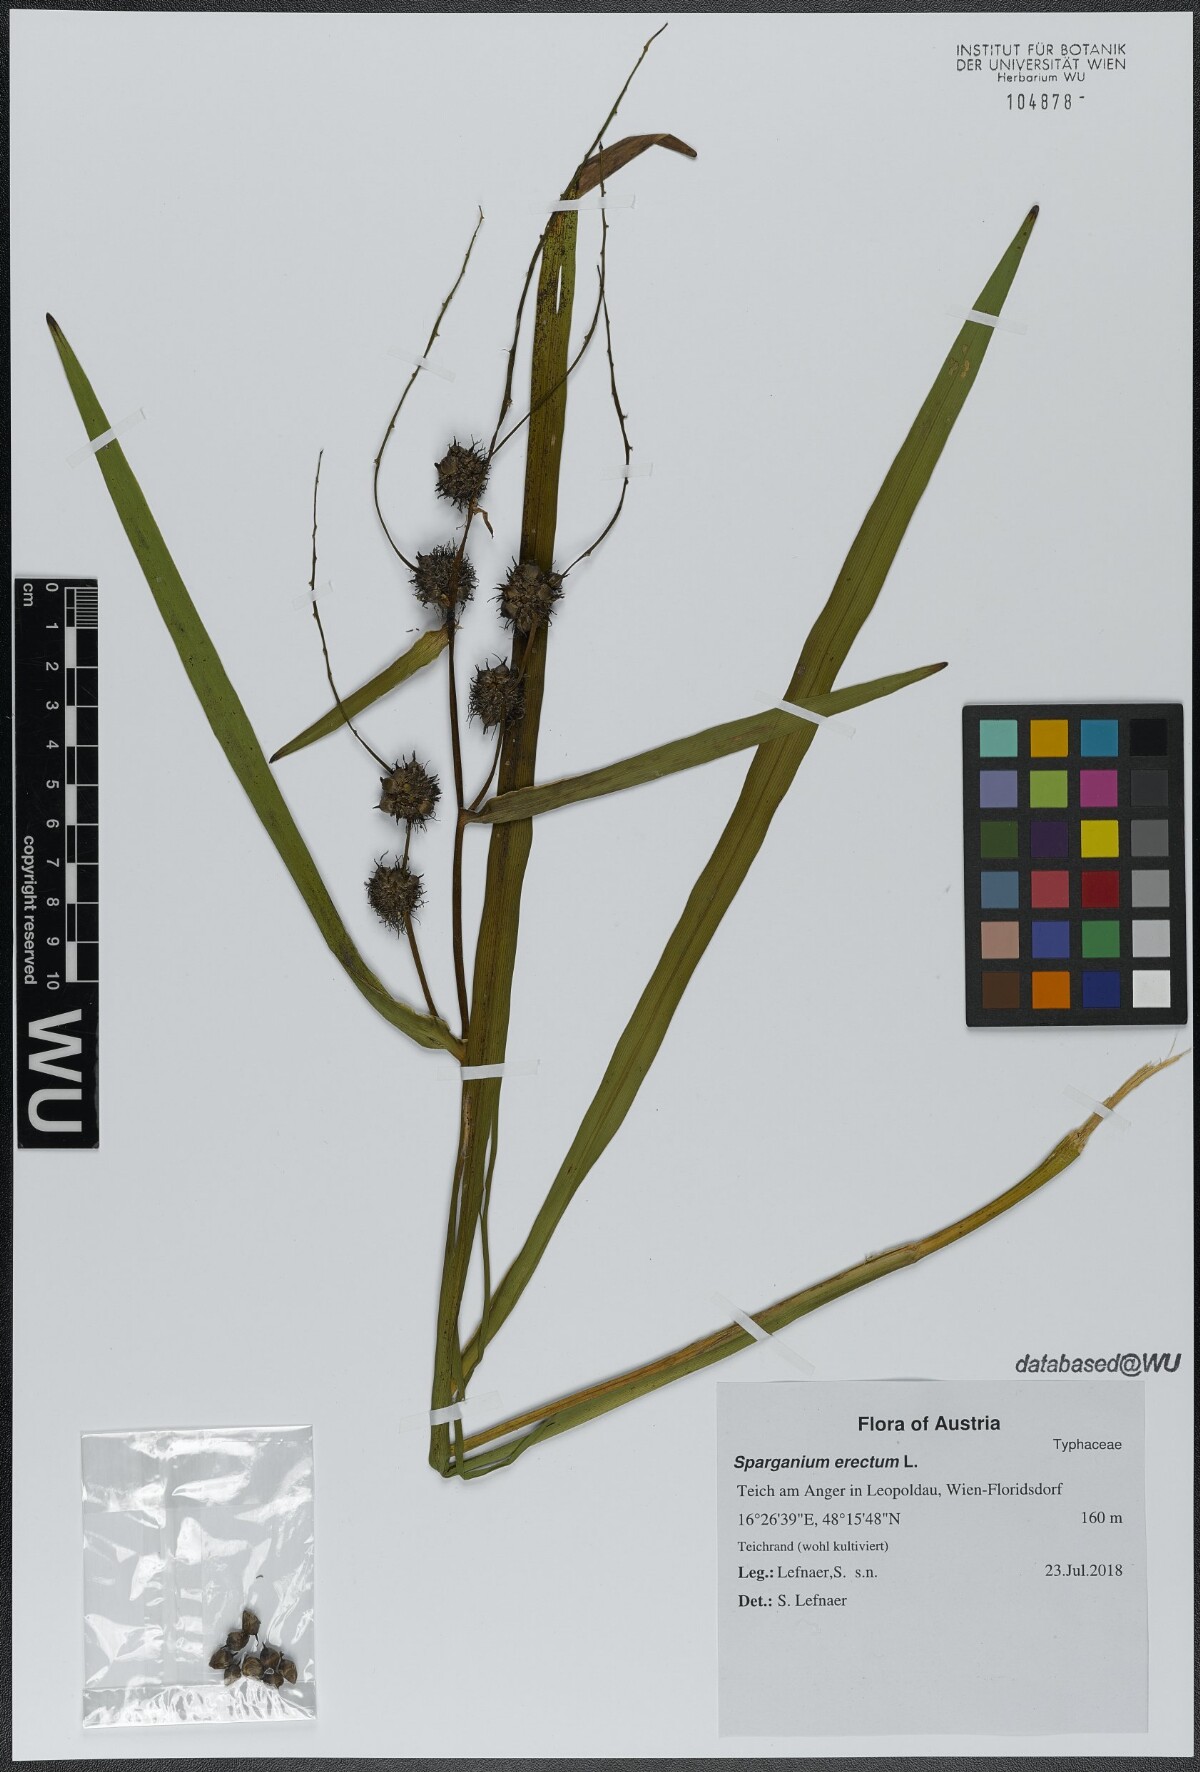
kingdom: Plantae
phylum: Tracheophyta
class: Liliopsida
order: Poales
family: Typhaceae
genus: Sparganium
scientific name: Sparganium erectum
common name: Branched bur-reed
